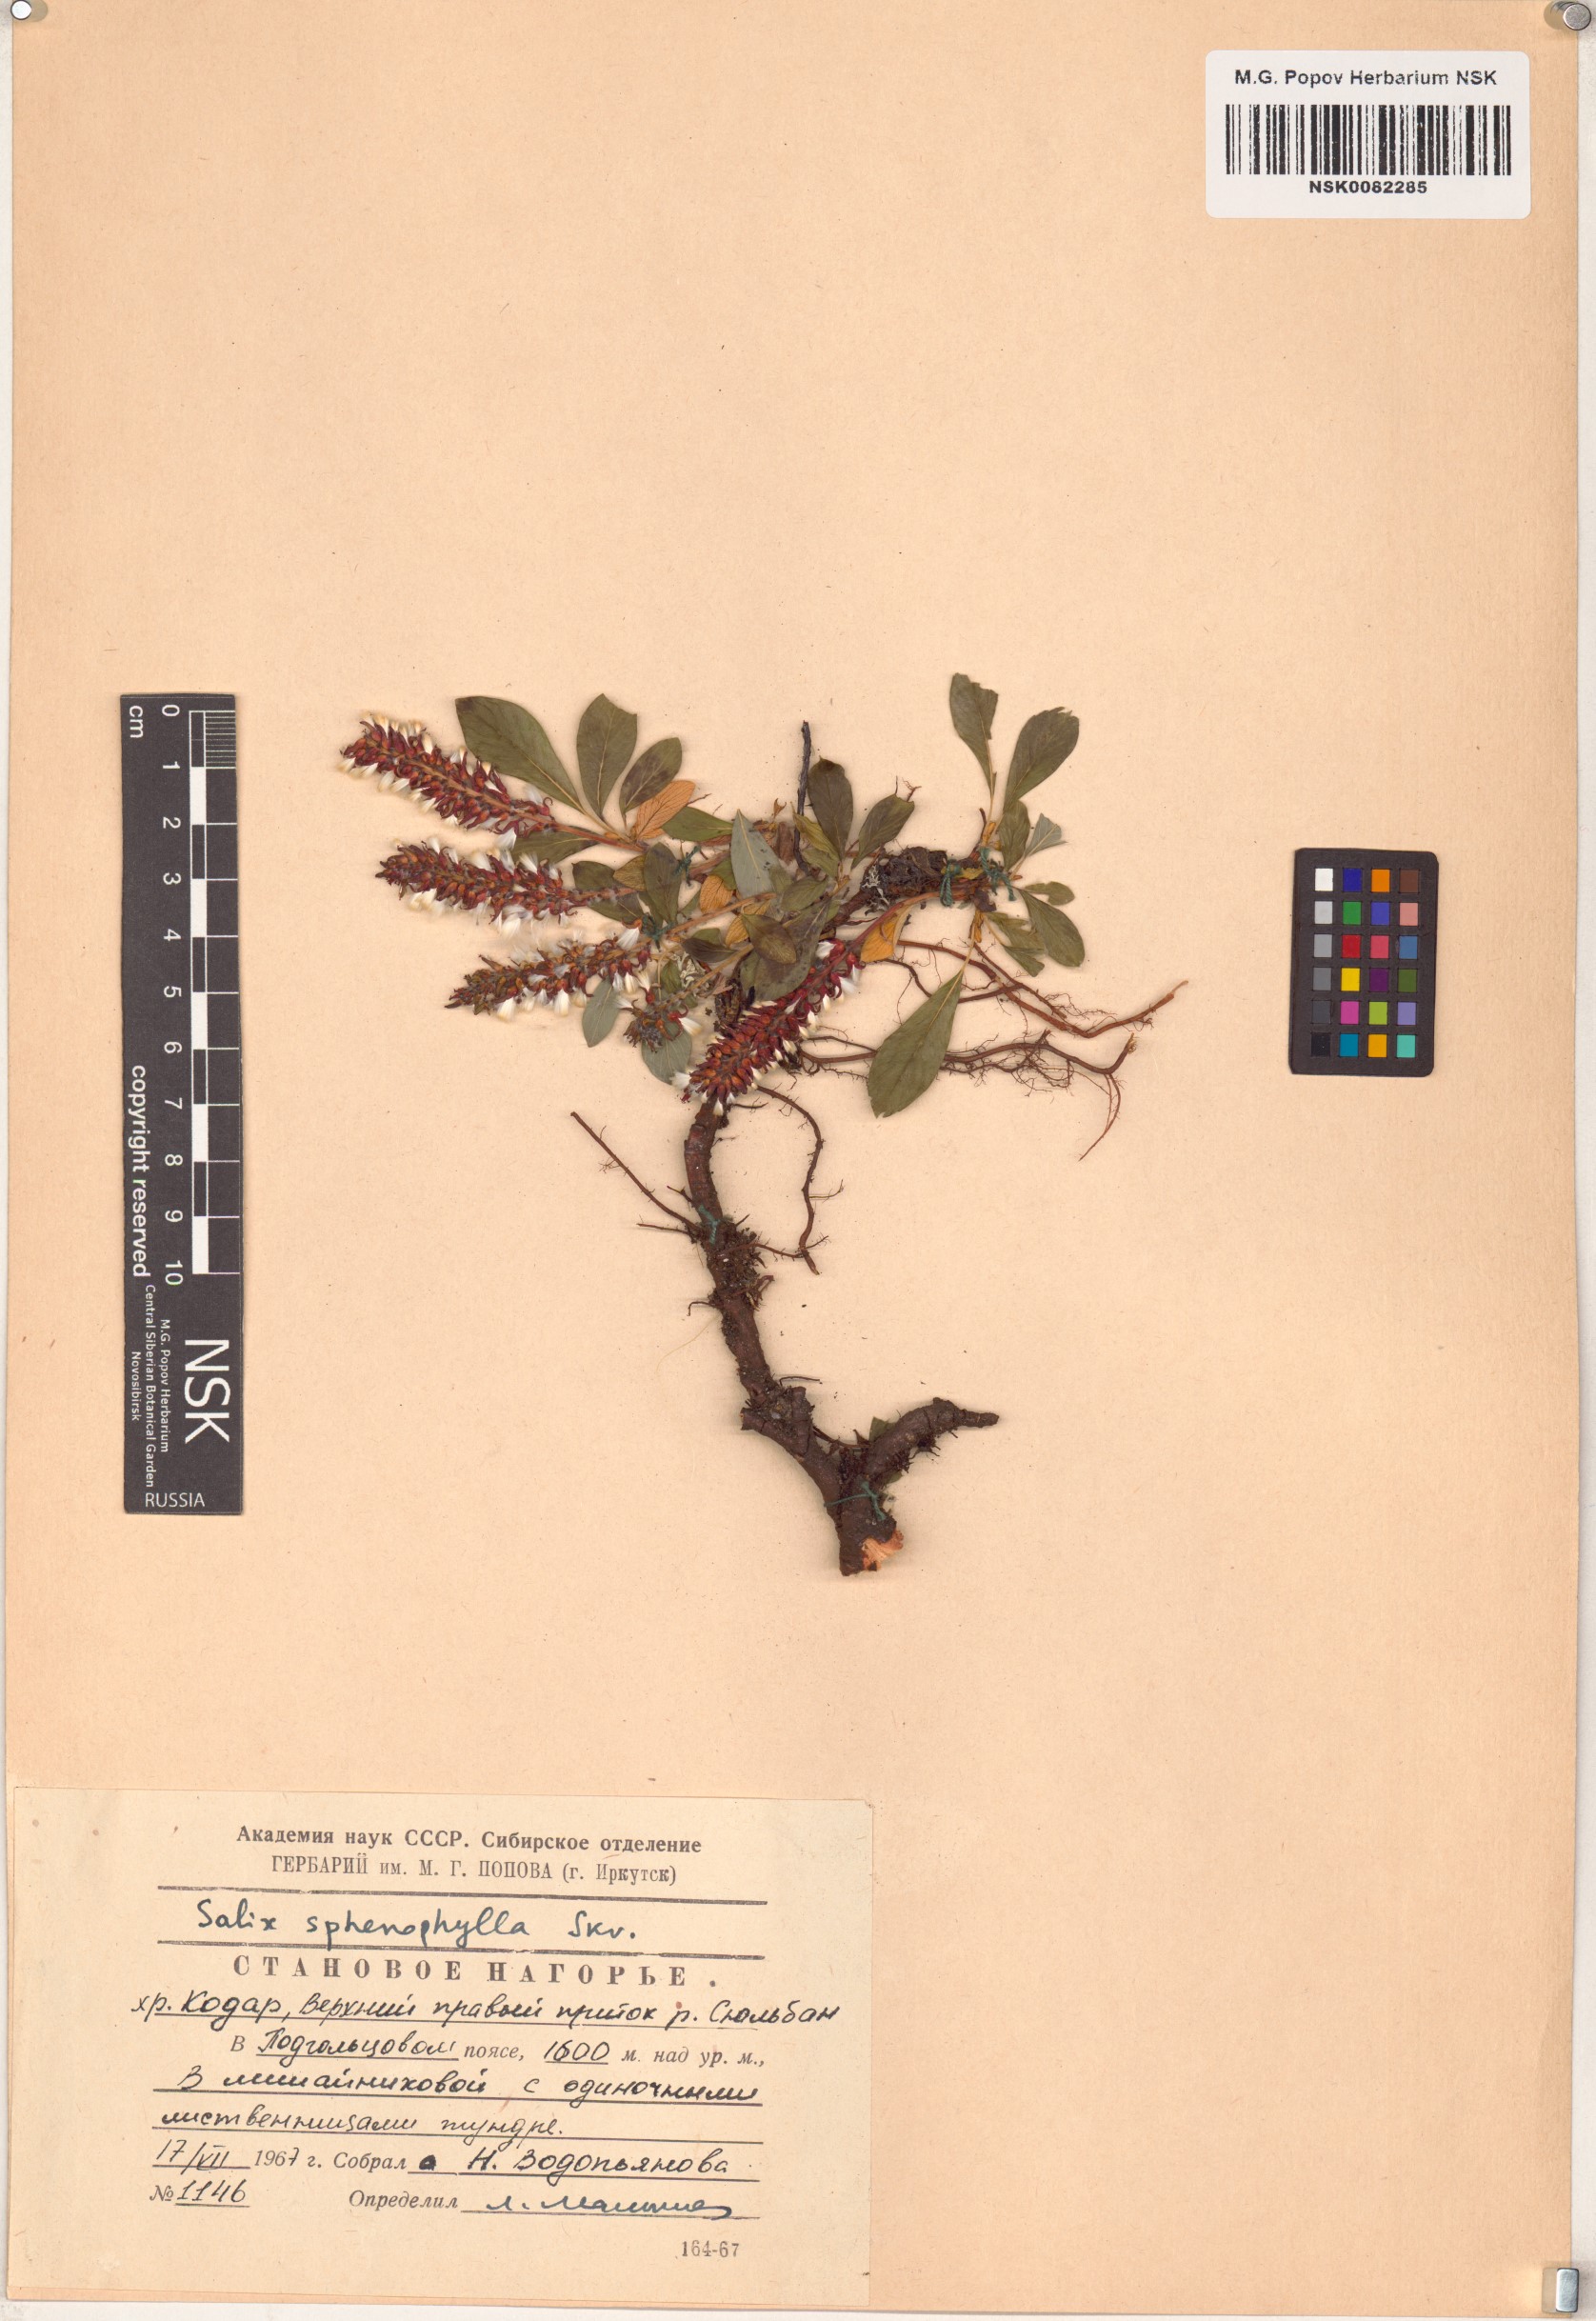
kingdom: Plantae
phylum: Tracheophyta
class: Magnoliopsida
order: Malpighiales
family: Salicaceae
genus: Salix
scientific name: Salix sphenophylla
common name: Wedge-leaved willow
